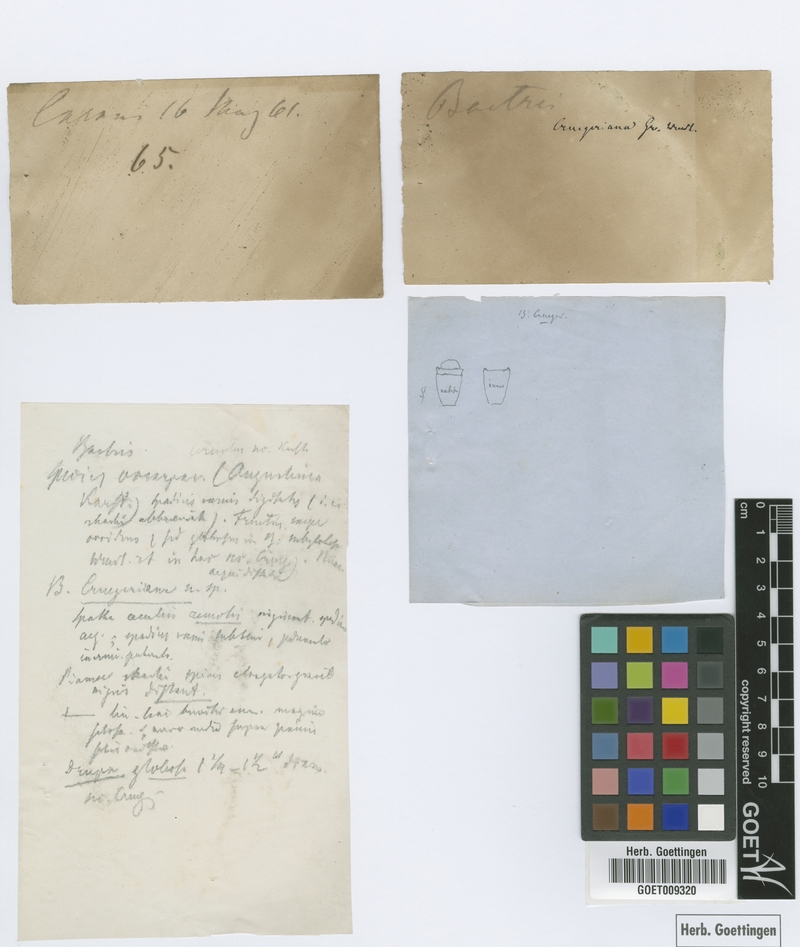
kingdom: Plantae
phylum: Tracheophyta
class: Liliopsida
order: Arecales
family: Arecaceae
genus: Bactris
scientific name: Bactris major
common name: Beach palm
